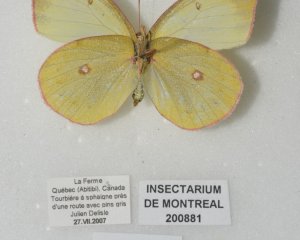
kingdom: Animalia
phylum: Arthropoda
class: Insecta
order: Lepidoptera
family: Pieridae
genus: Colias
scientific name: Colias interior
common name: Pink-edged Sulphur
